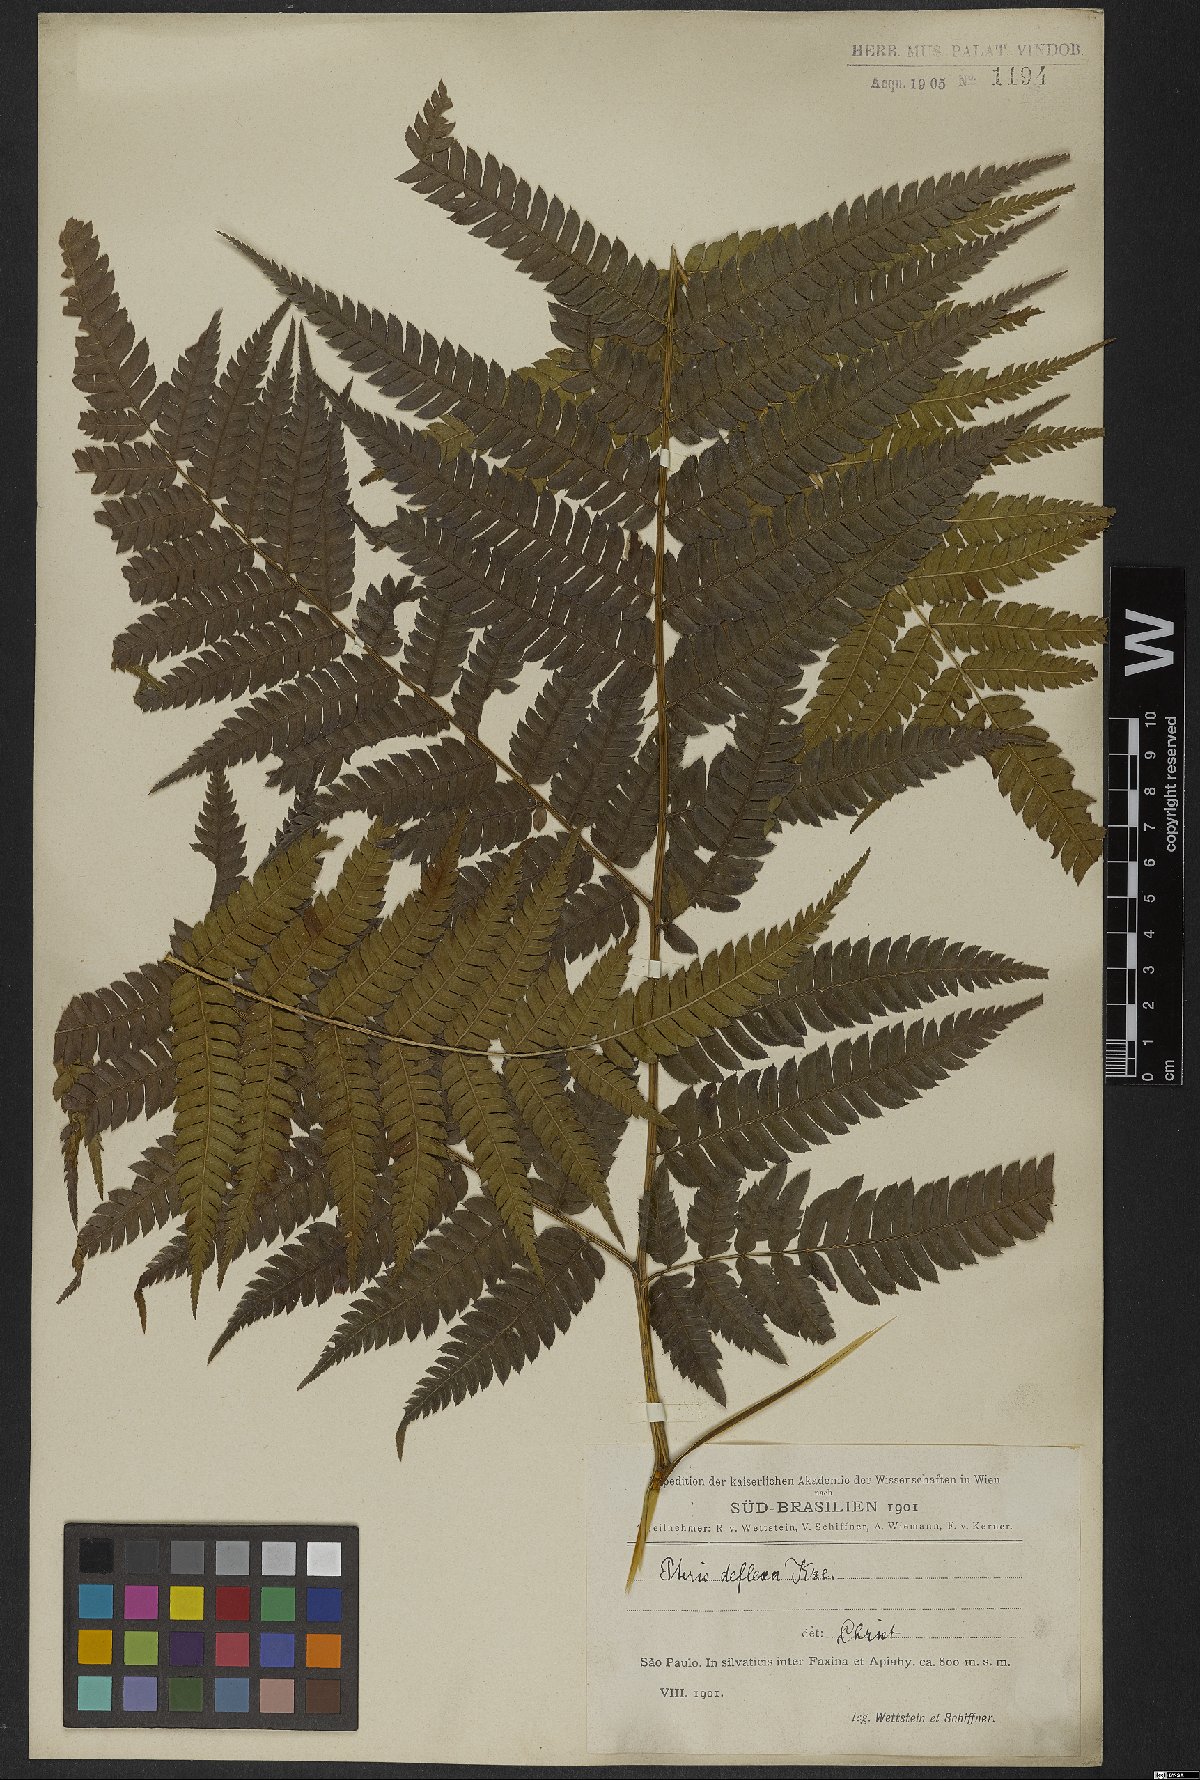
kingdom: Plantae
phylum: Tracheophyta
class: Polypodiopsida
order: Polypodiales
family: Pteridaceae
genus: Pteris
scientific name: Pteris deflexa
